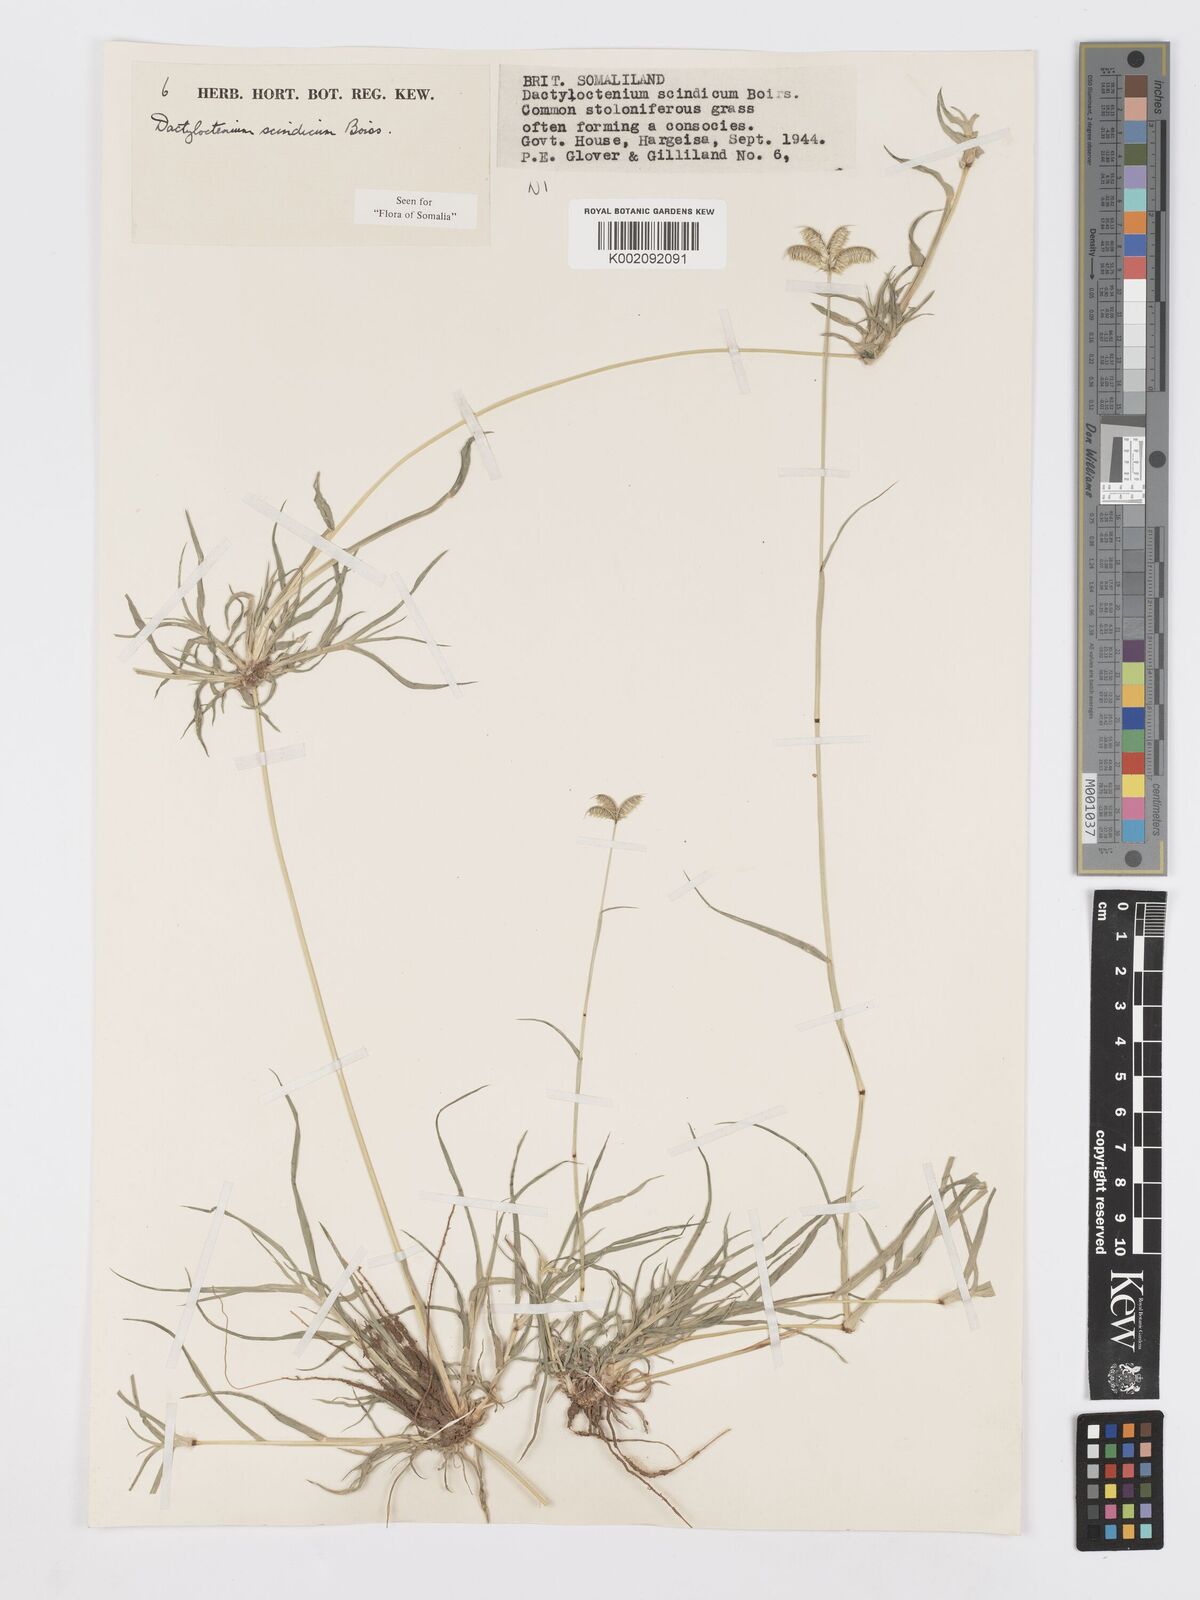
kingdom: Plantae
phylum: Tracheophyta
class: Liliopsida
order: Poales
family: Poaceae
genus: Dactyloctenium
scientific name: Dactyloctenium scindicum
